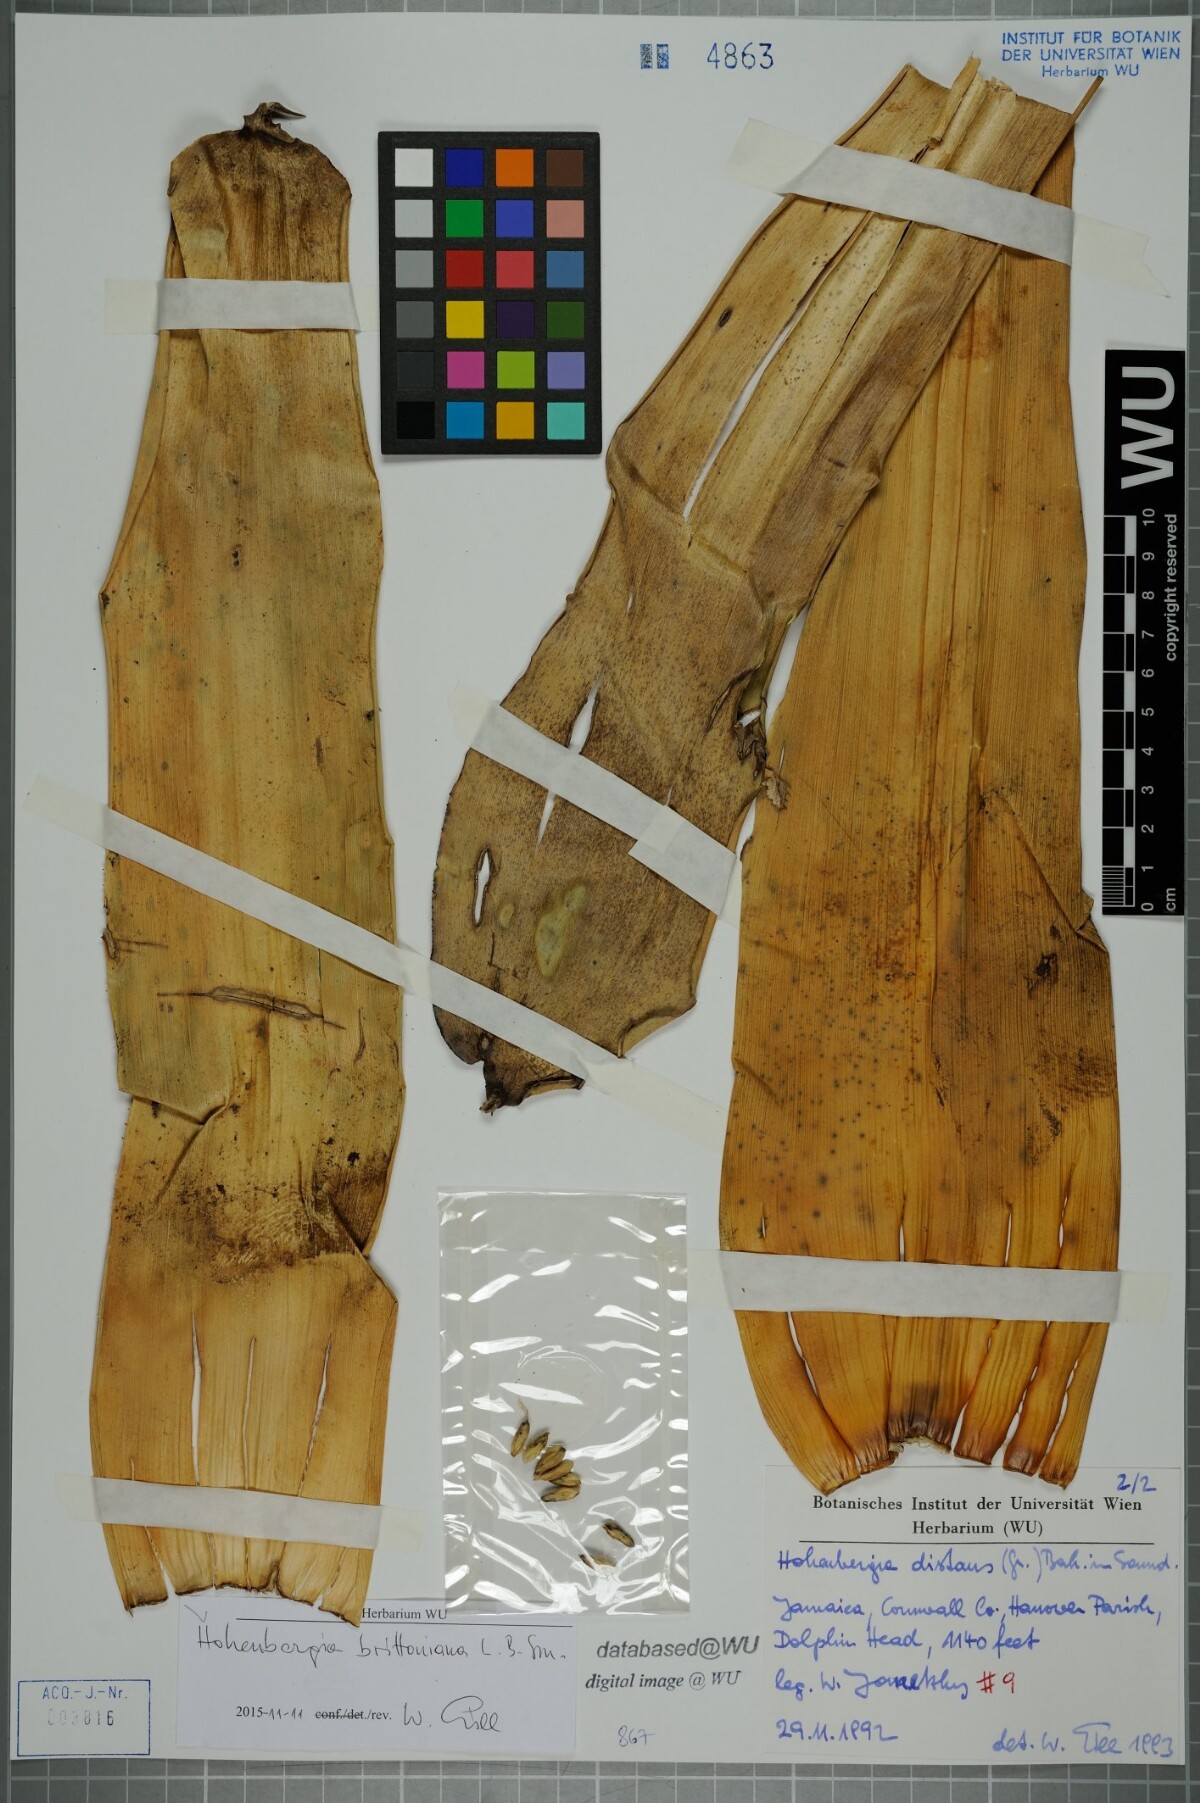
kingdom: Plantae
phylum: Tracheophyta
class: Liliopsida
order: Poales
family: Bromeliaceae
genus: Wittmackia
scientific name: Wittmackia distans
